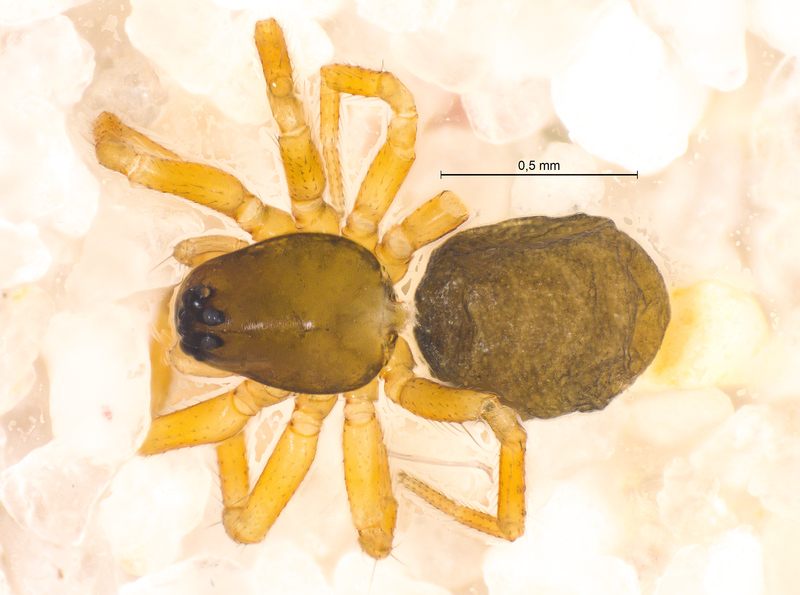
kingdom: Animalia
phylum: Arthropoda
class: Arachnida
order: Araneae
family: Linyphiidae
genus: Minyriolus
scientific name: Minyriolus pusillus
